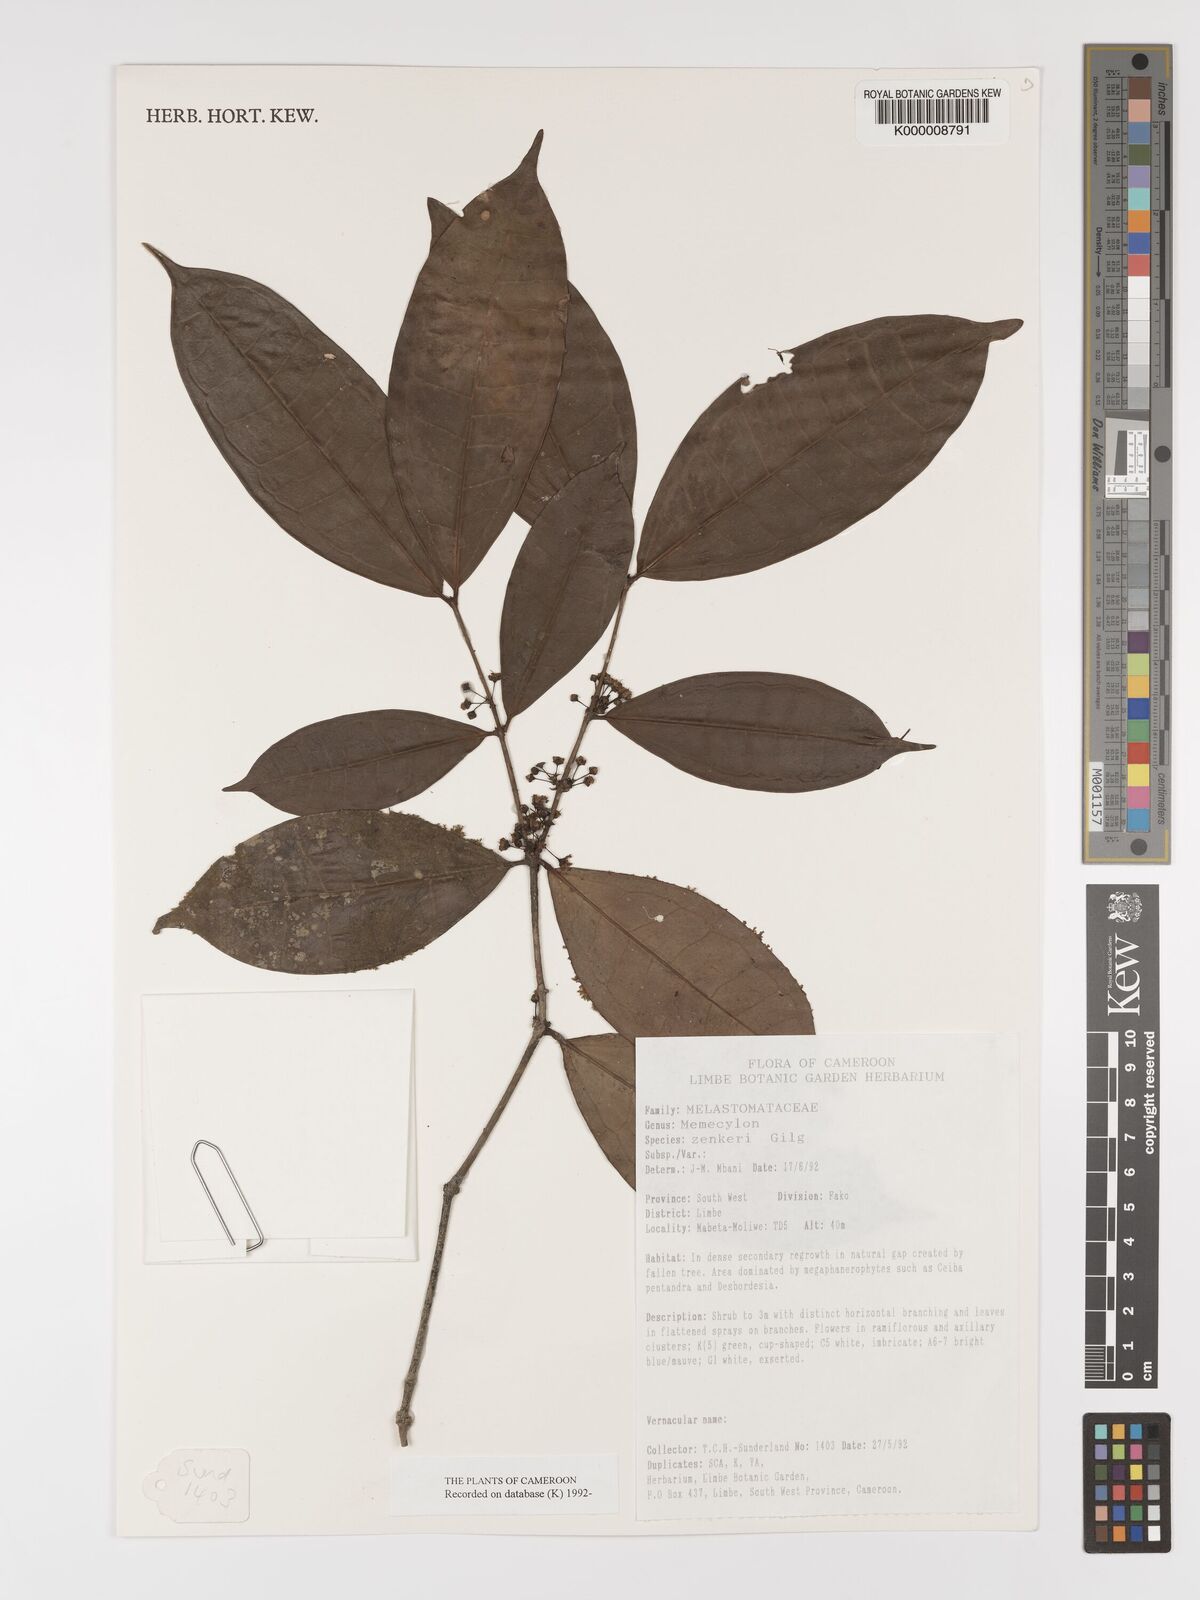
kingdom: Plantae
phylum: Tracheophyta
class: Magnoliopsida
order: Myrtales
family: Melastomataceae
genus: Memecylon
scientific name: Memecylon zenkeri
